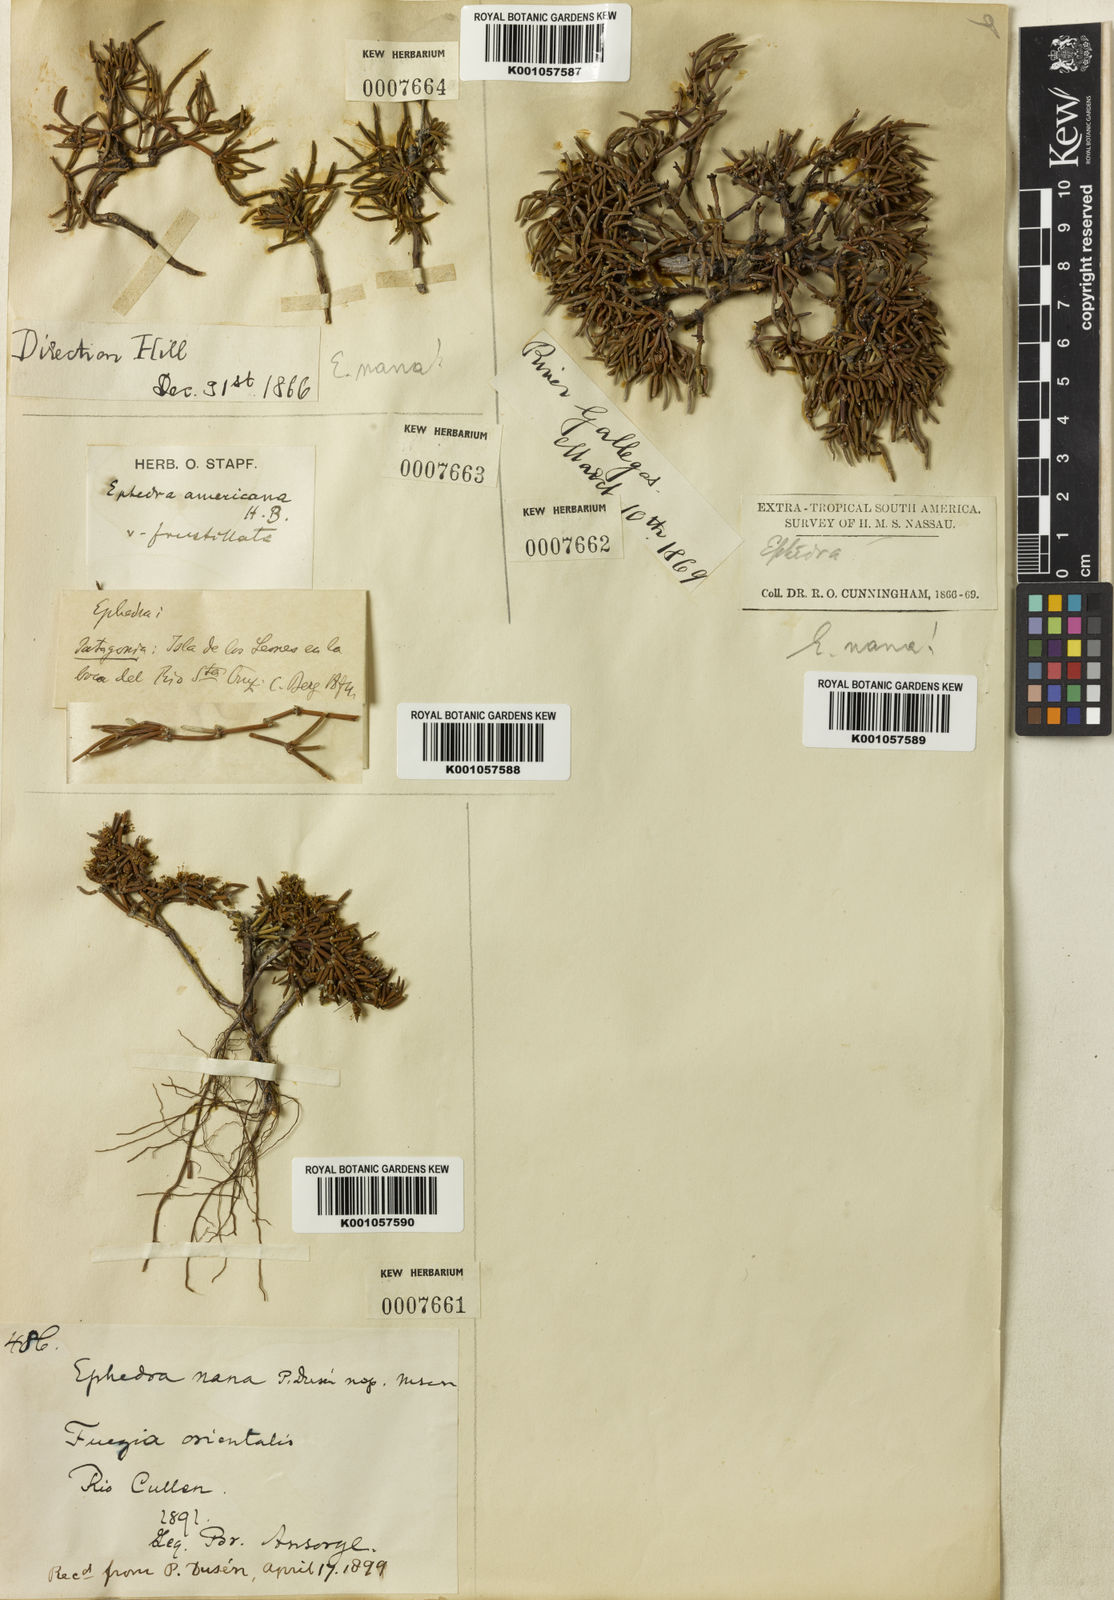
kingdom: Plantae
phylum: Tracheophyta
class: Gnetopsida
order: Ephedrales
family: Ephedraceae
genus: Ephedra
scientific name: Ephedra frustillata
